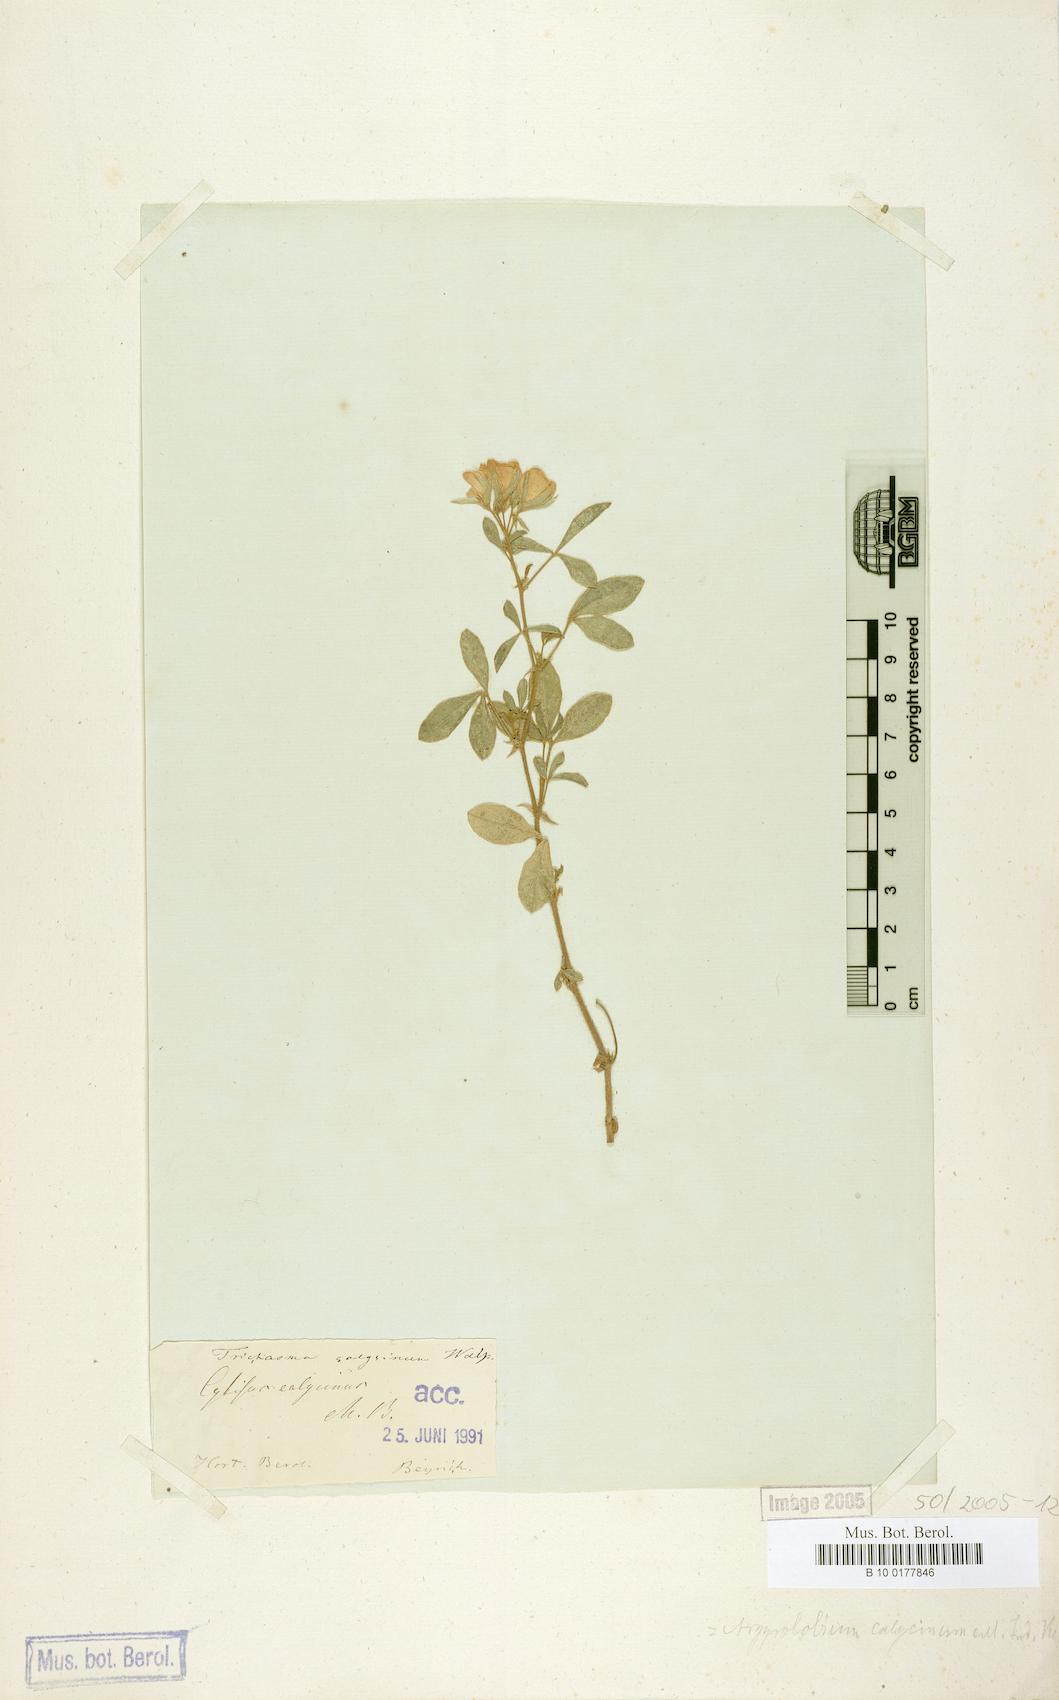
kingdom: Plantae
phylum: Tracheophyta
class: Magnoliopsida
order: Fabales
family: Fabaceae
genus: Argyrolobium
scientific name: Argyrolobium biebersteinii
